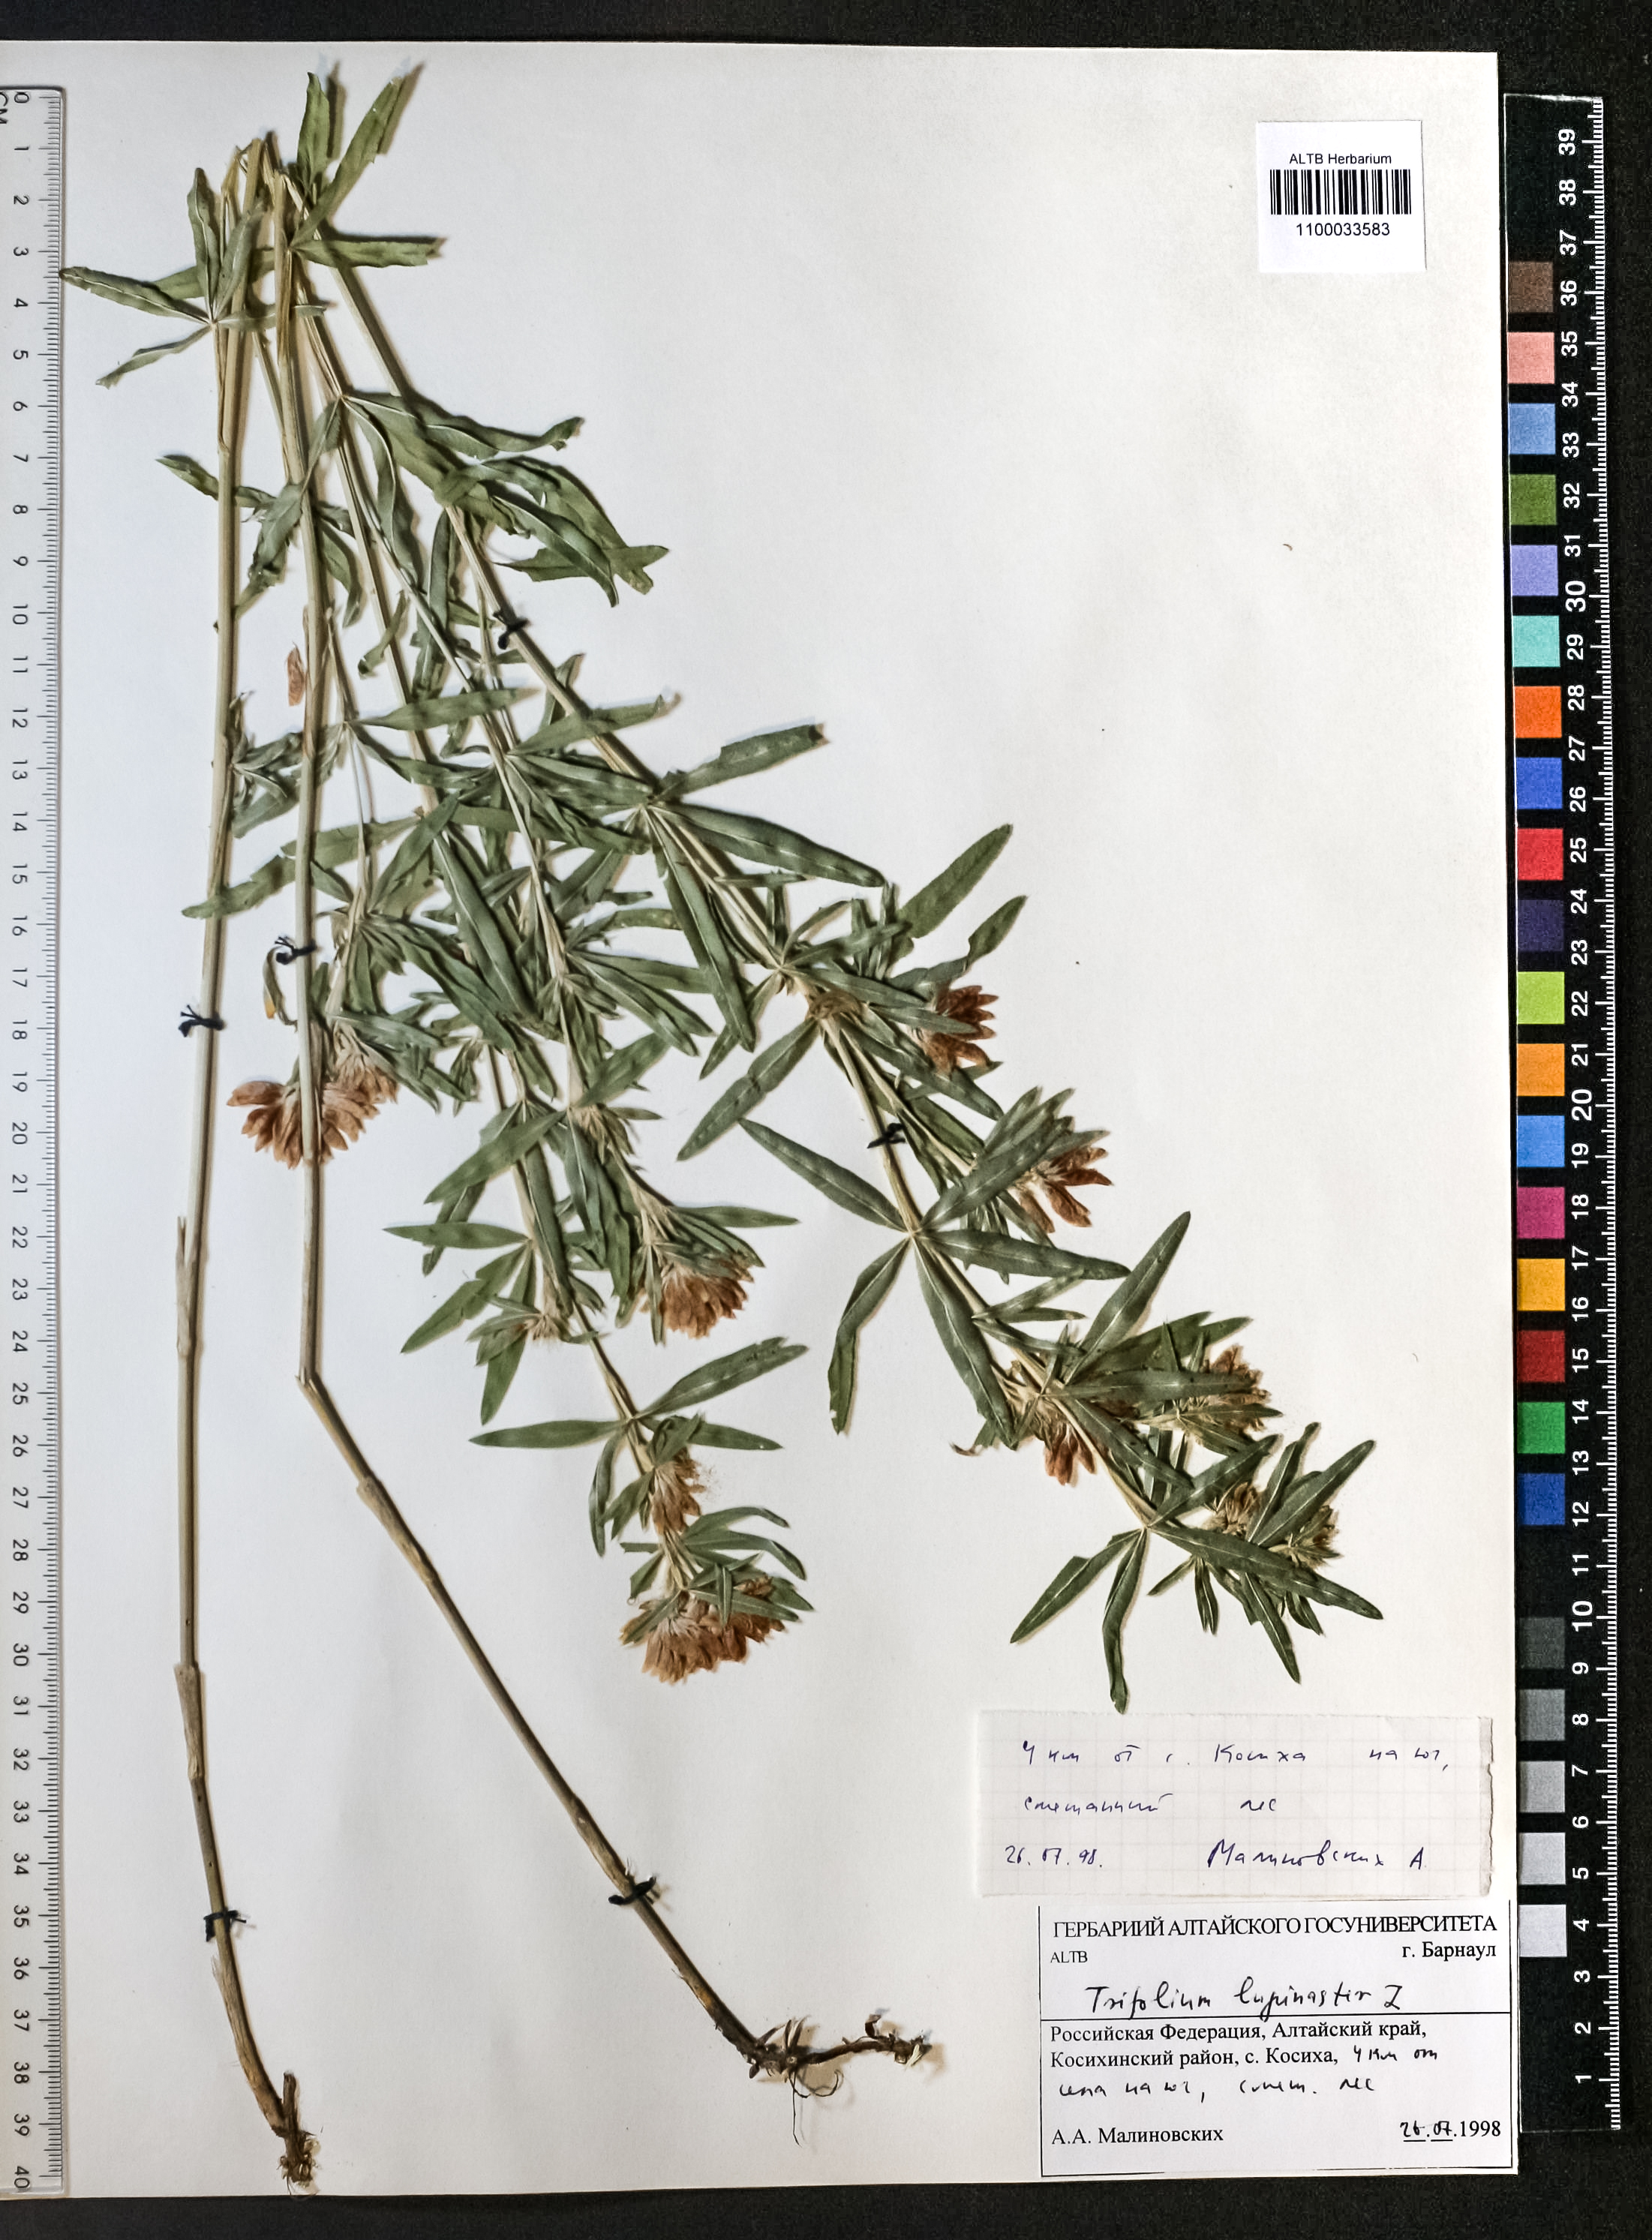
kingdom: Plantae
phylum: Tracheophyta
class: Magnoliopsida
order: Fabales
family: Fabaceae
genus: Trifolium
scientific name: Trifolium lupinaster
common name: Lupine clover
